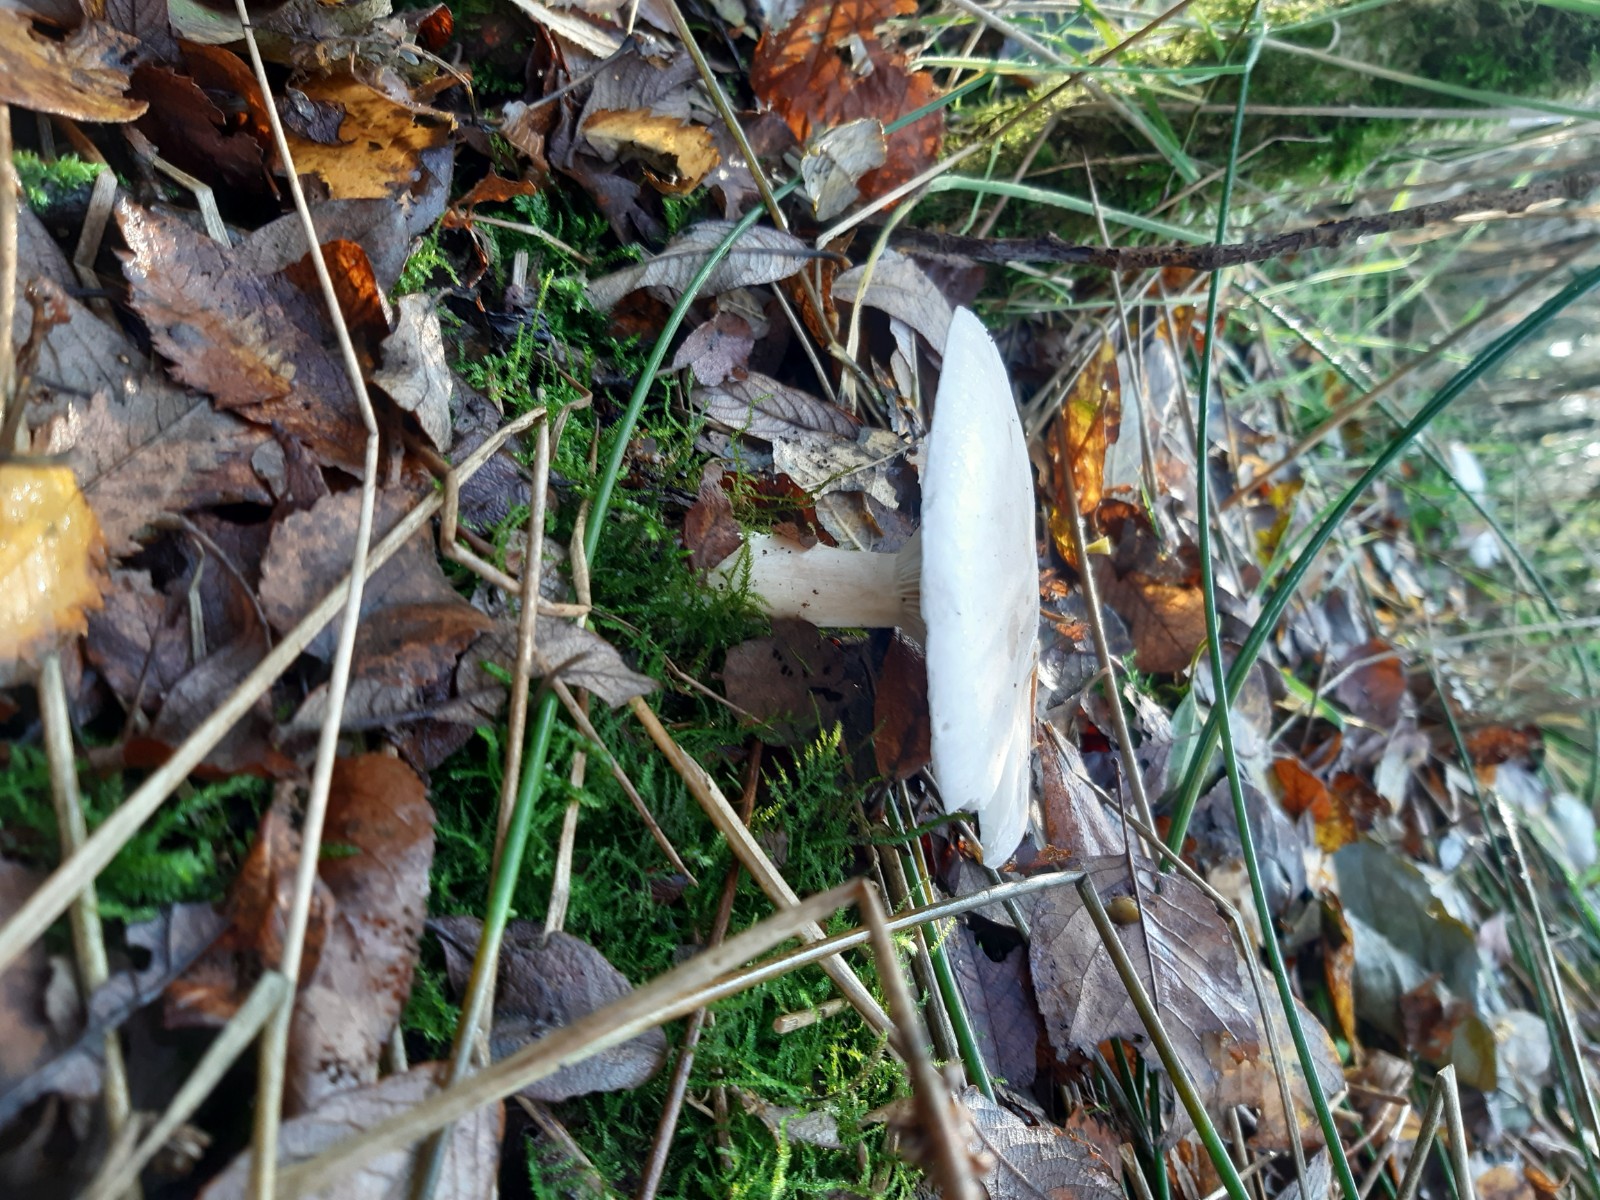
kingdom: Fungi
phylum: Basidiomycota
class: Agaricomycetes
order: Agaricales
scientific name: Agaricales
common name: champignonordenen
